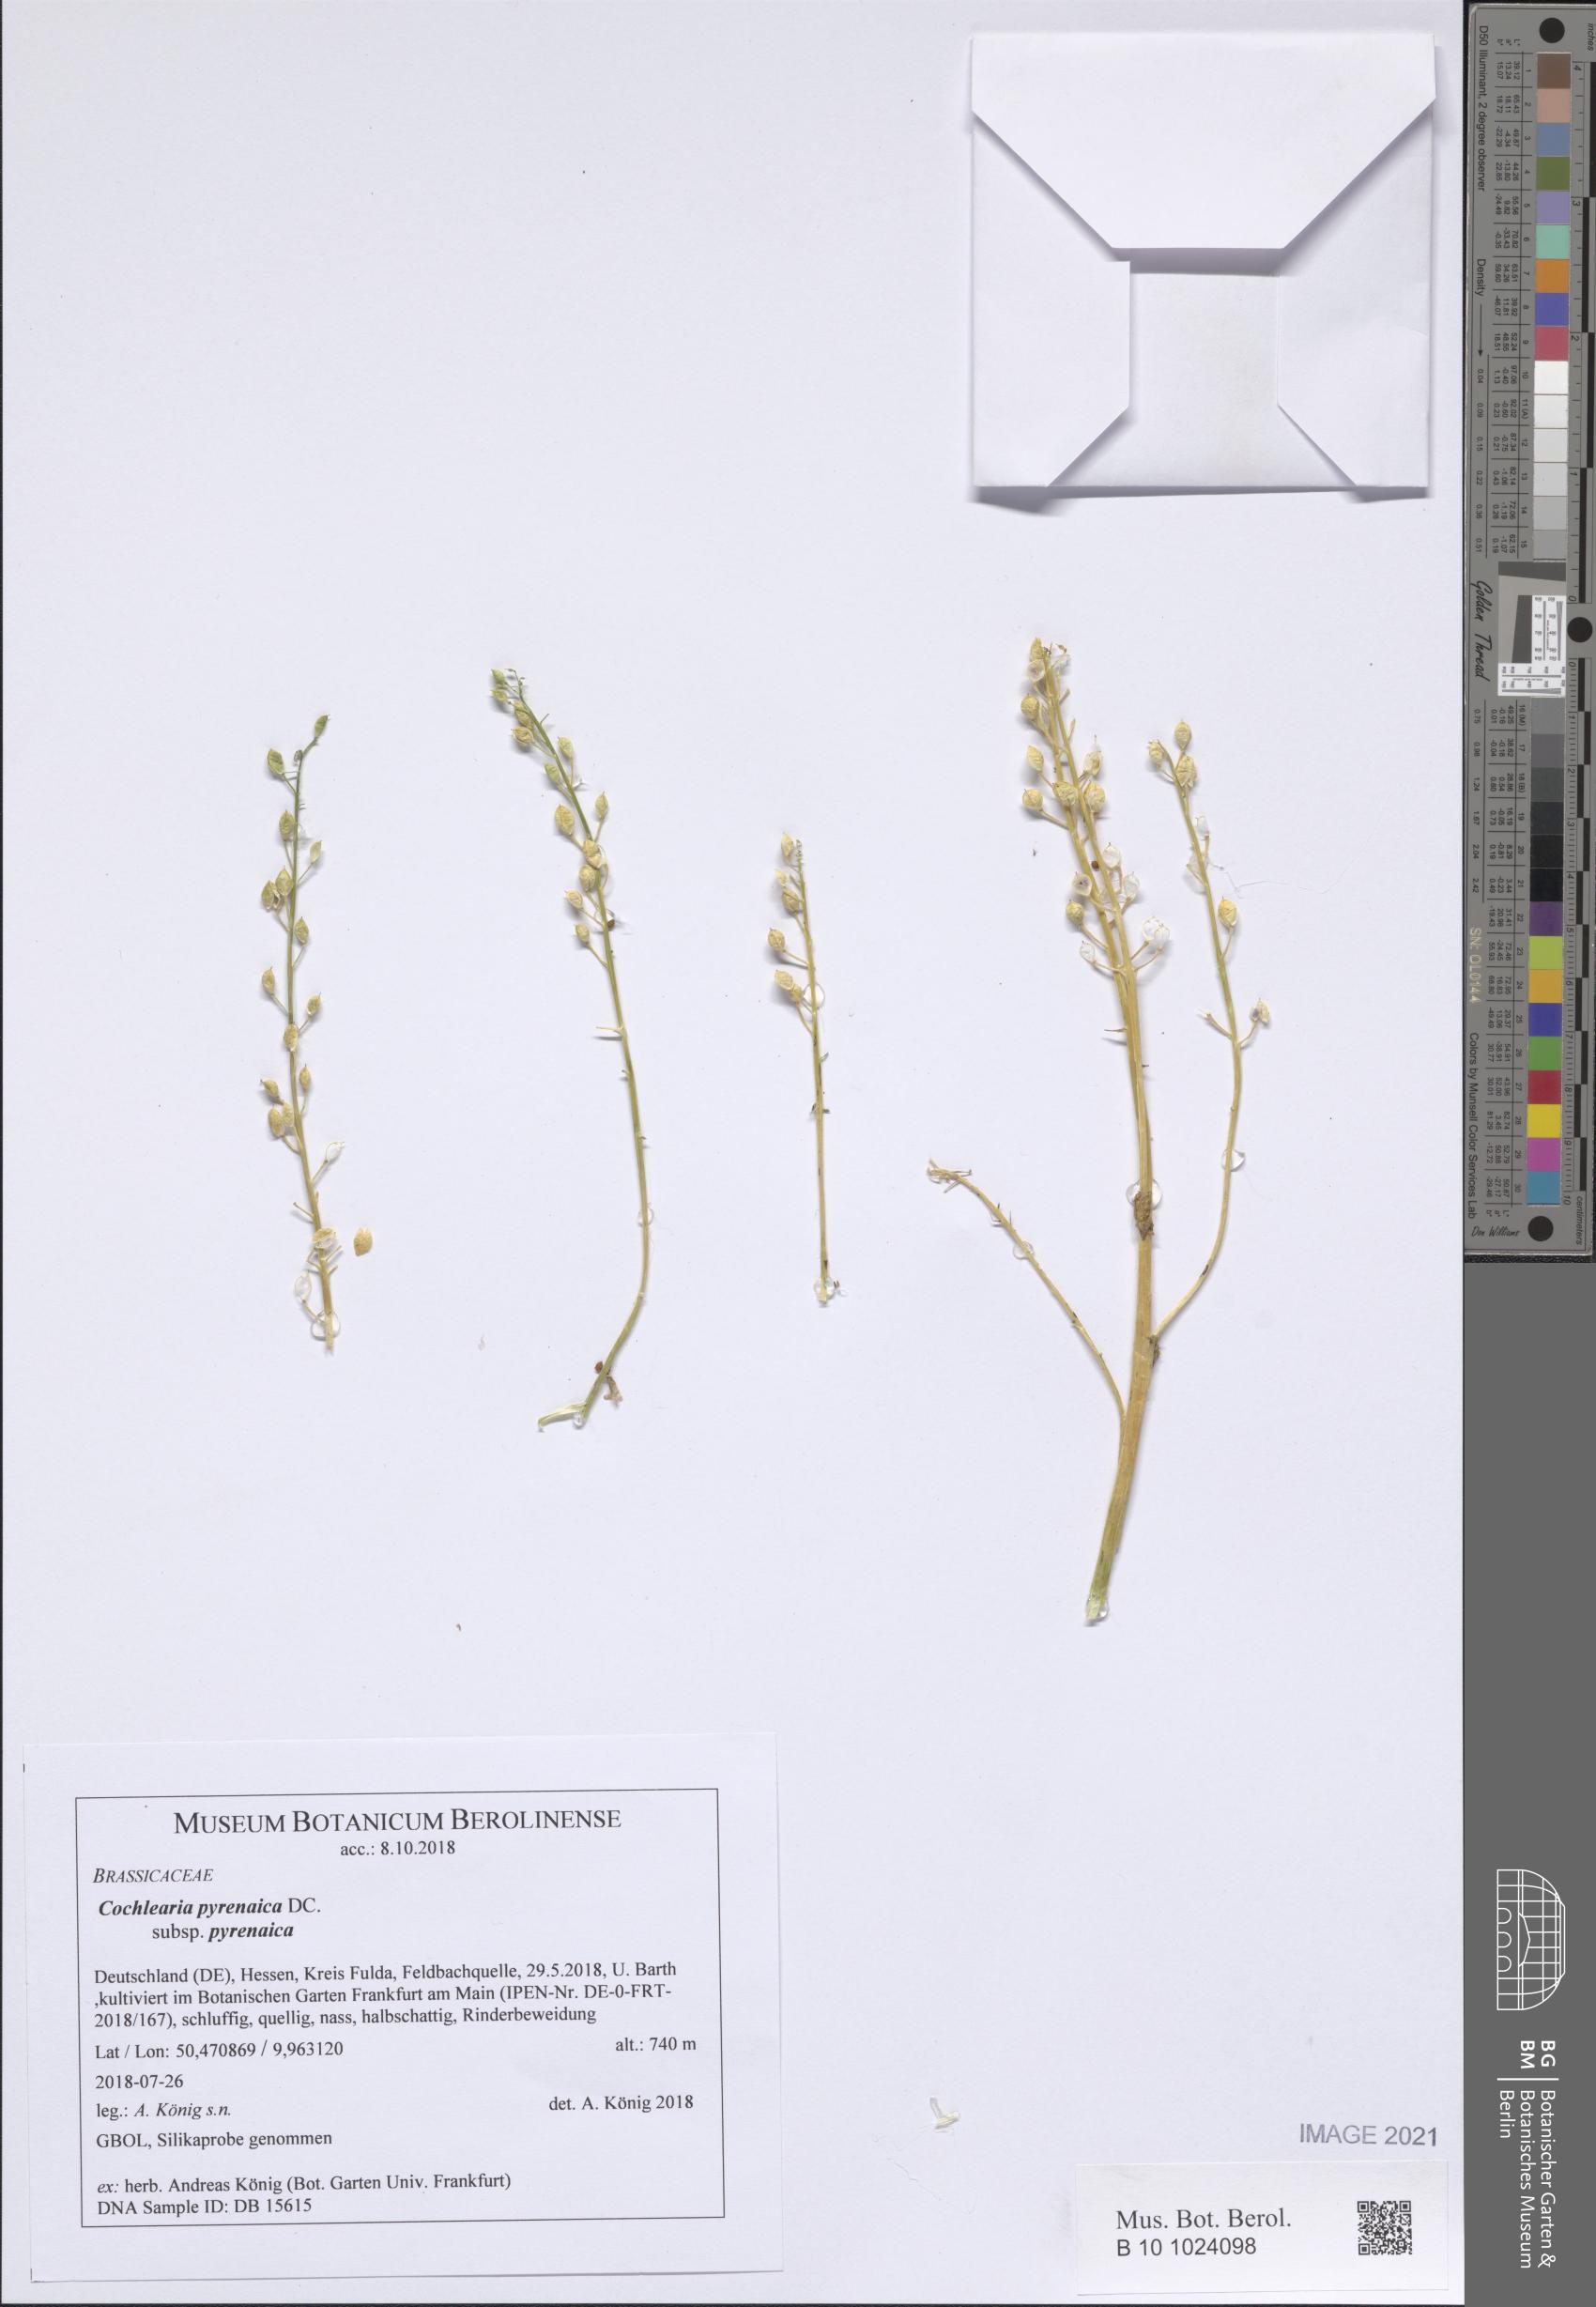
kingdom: Plantae
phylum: Tracheophyta
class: Magnoliopsida
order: Brassicales
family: Brassicaceae
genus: Cochlearia
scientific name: Cochlearia pyrenaica
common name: Upland scurvy-grass
